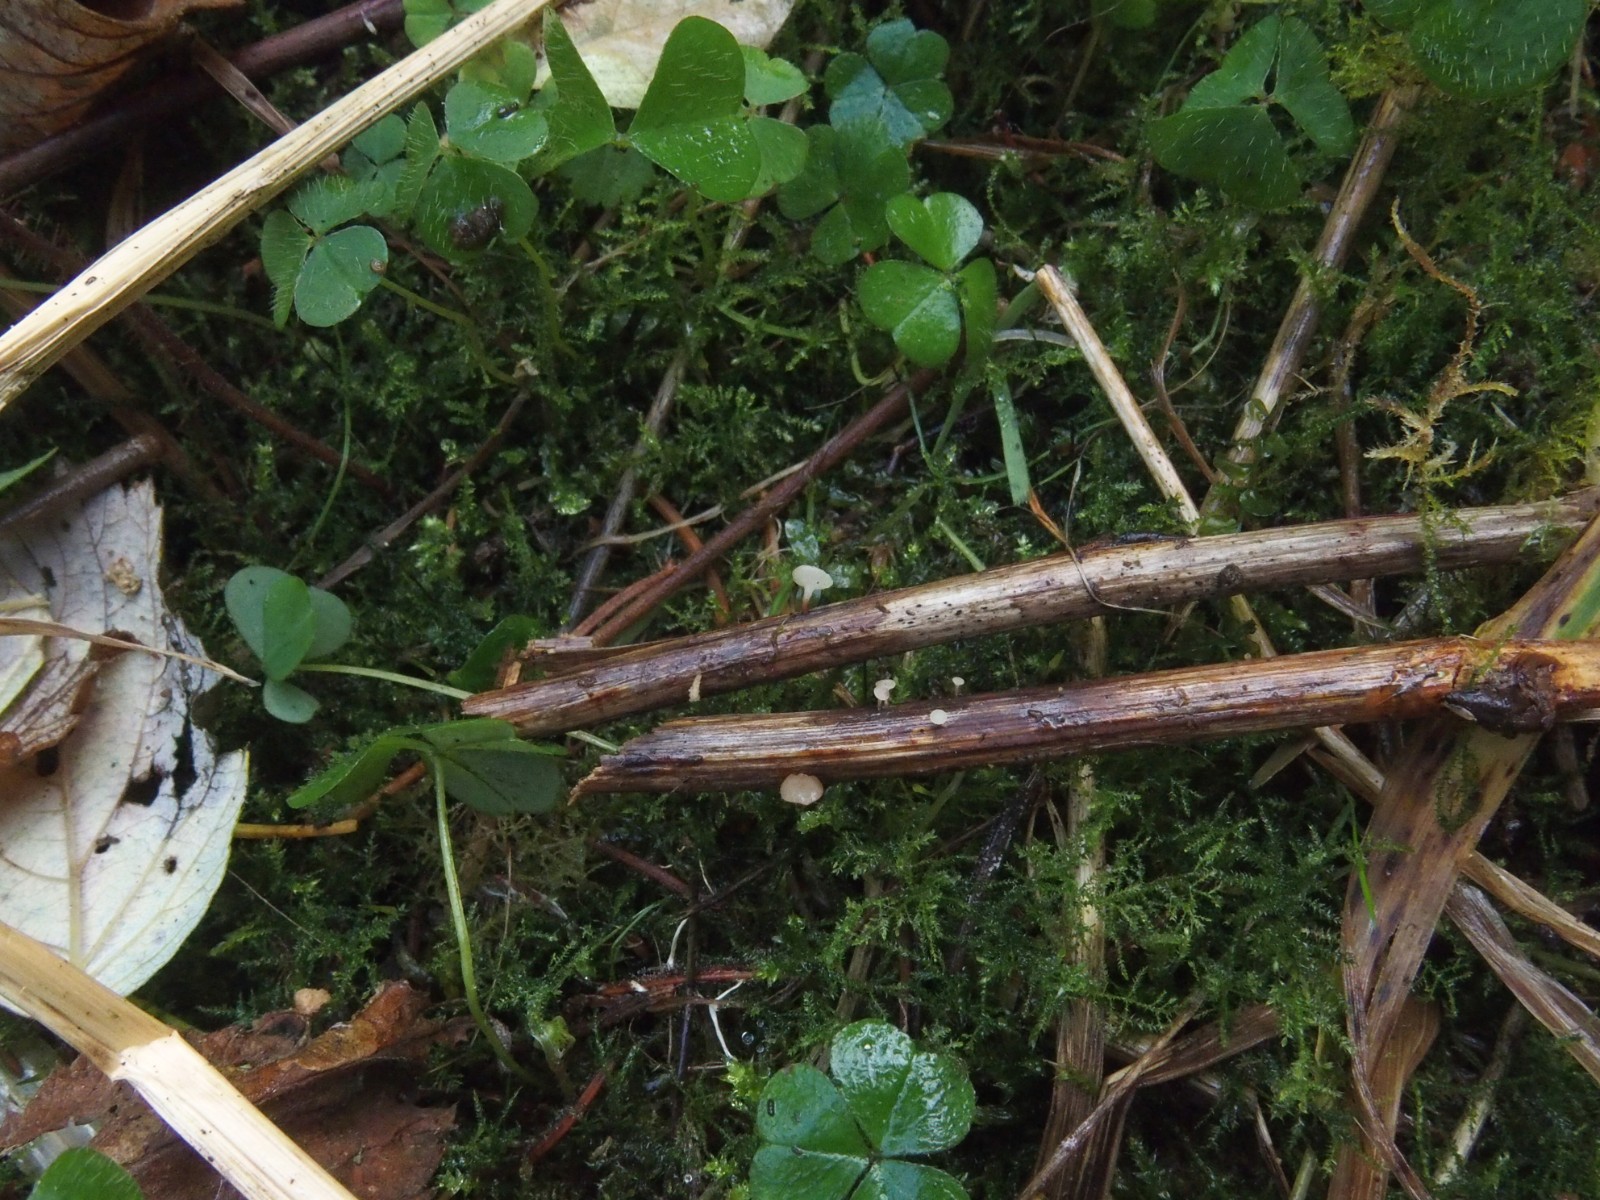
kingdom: Fungi
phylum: Ascomycota
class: Leotiomycetes
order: Helotiales
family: Helotiaceae
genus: Hymenoscyphus
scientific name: Hymenoscyphus scutula
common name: almindelig stilkskive
